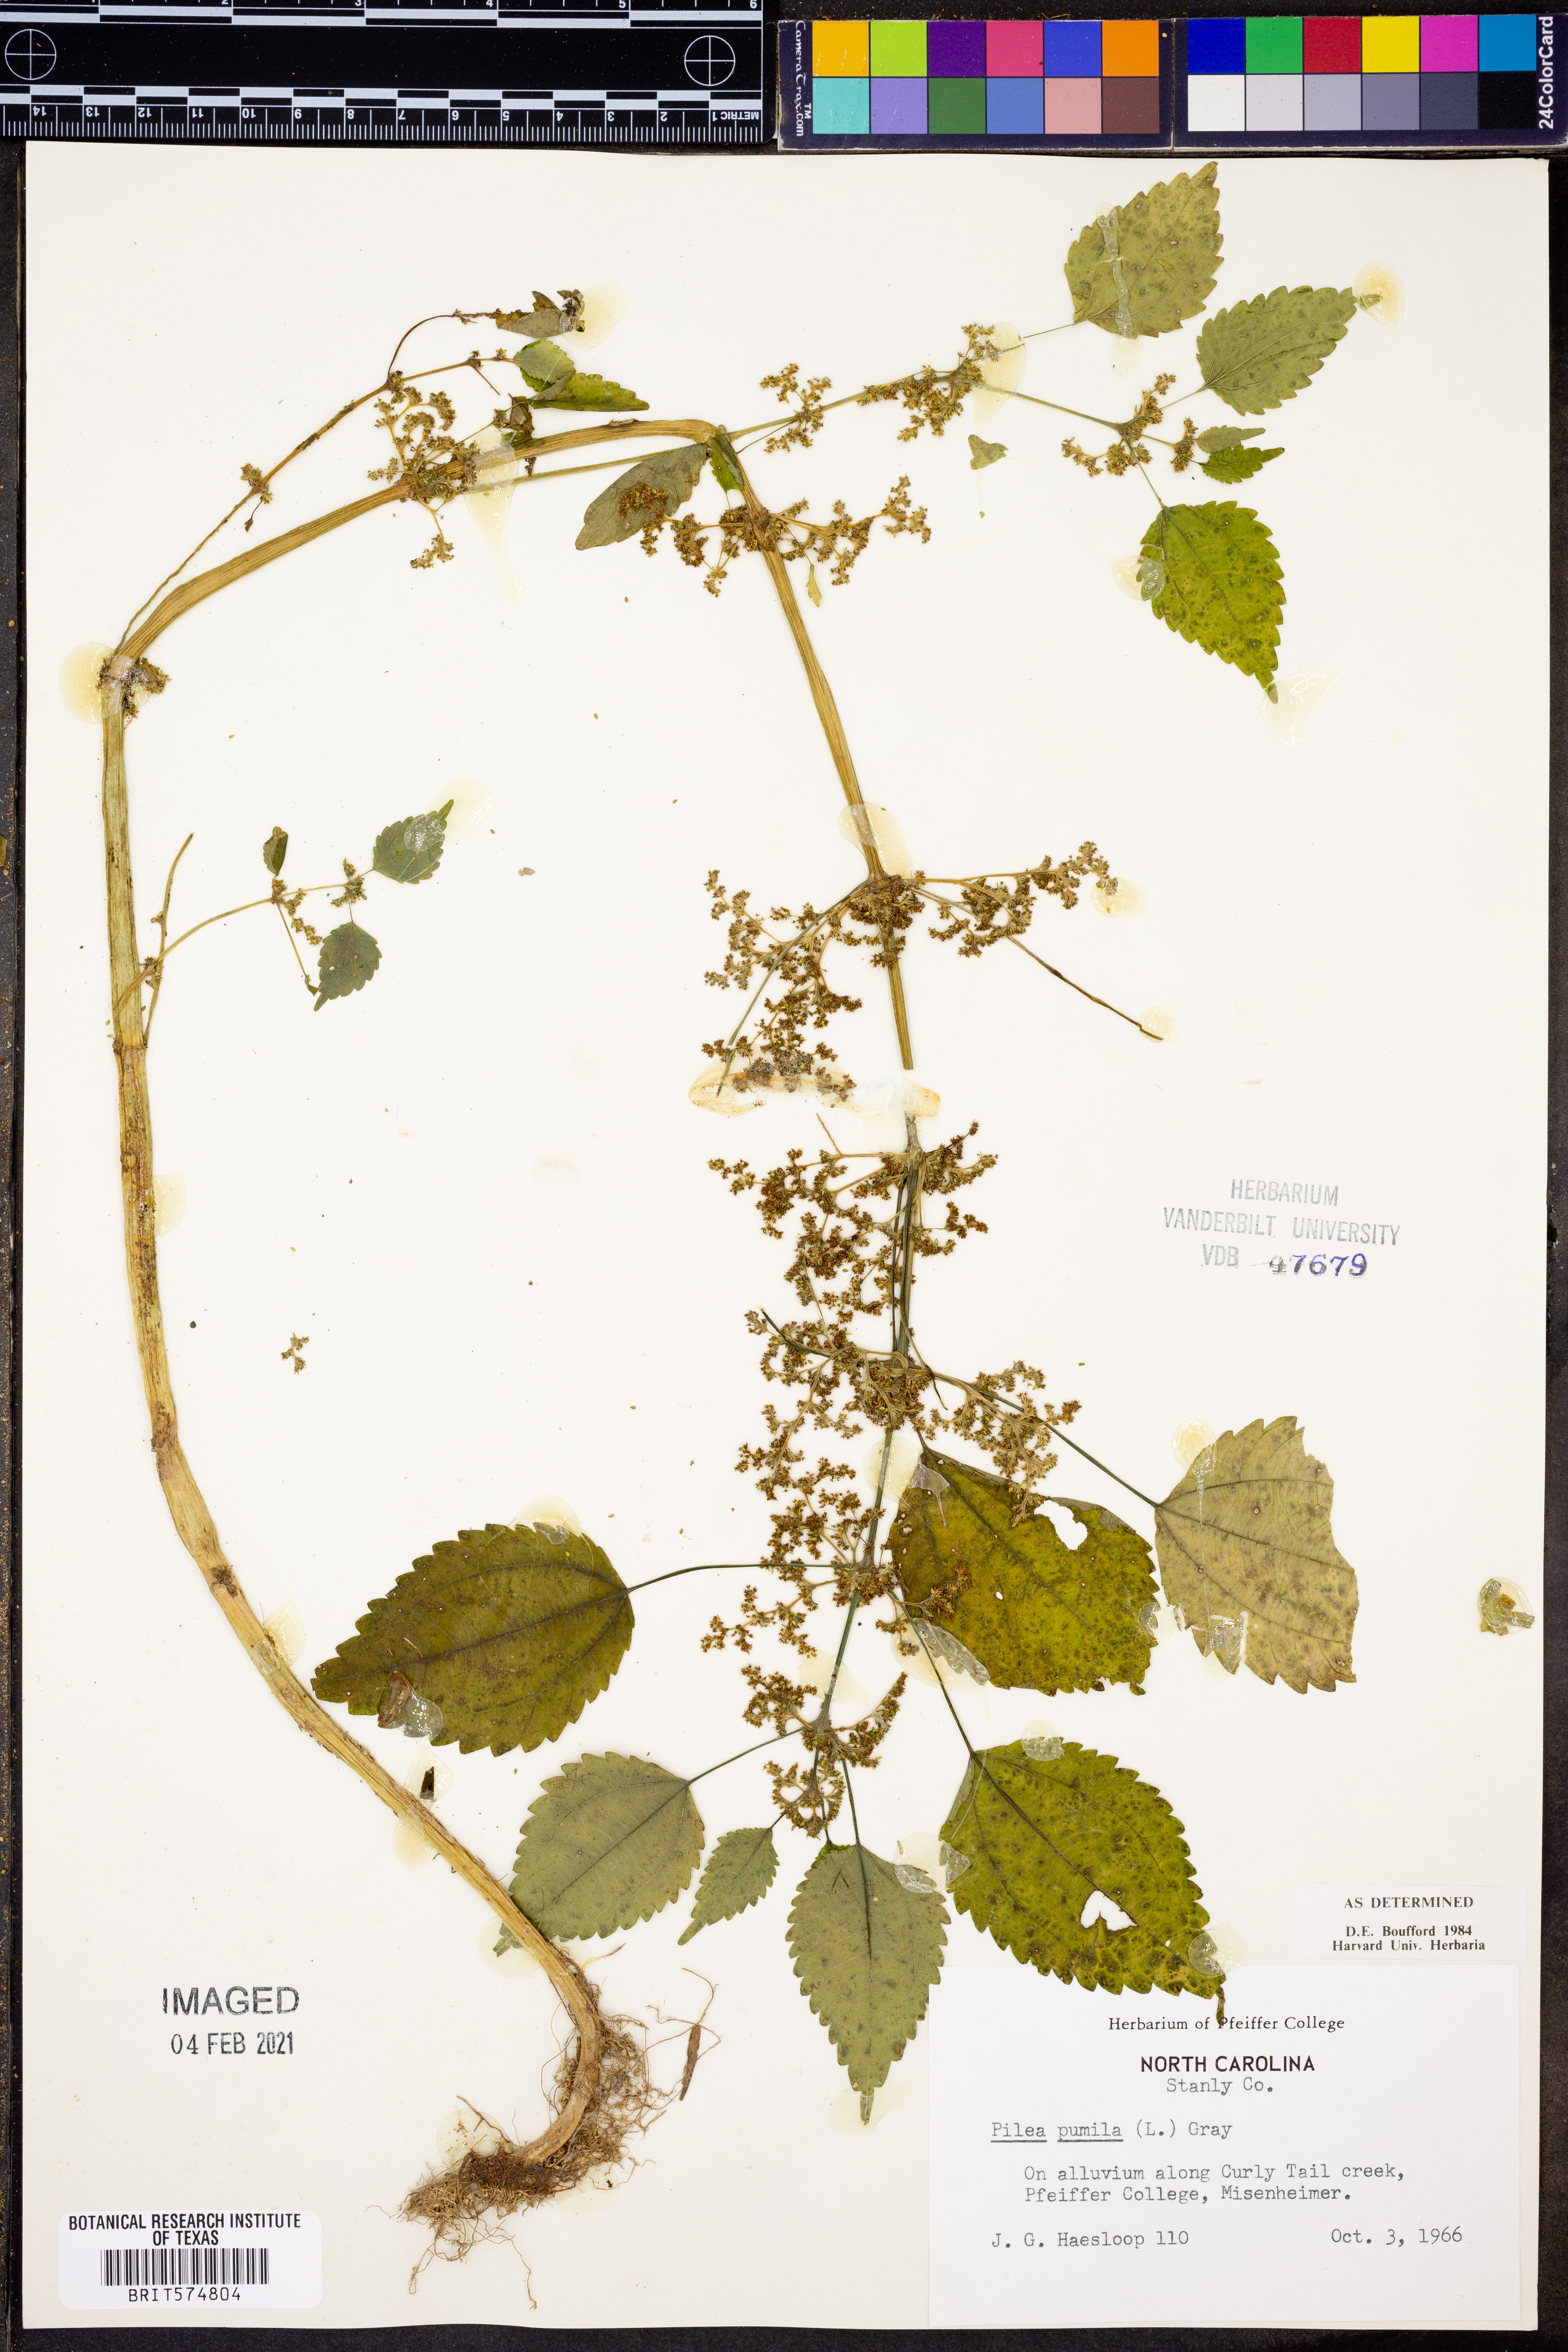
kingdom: Plantae
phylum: Tracheophyta
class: Magnoliopsida
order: Rosales
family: Urticaceae
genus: Pilea
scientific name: Pilea pumila
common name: Clearweed
